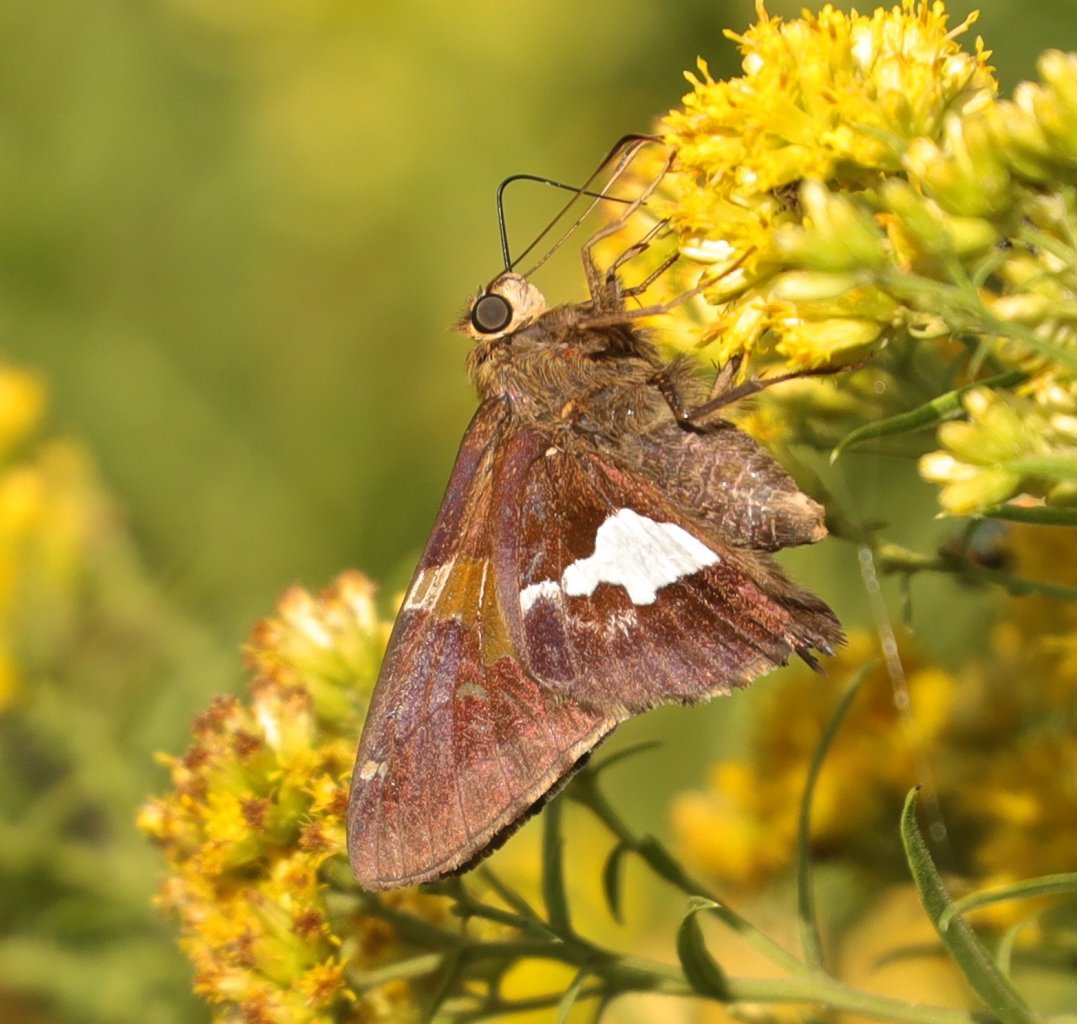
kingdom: Animalia
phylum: Arthropoda
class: Insecta
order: Lepidoptera
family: Hesperiidae
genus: Epargyreus
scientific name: Epargyreus clarus
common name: Silver-spotted Skipper
